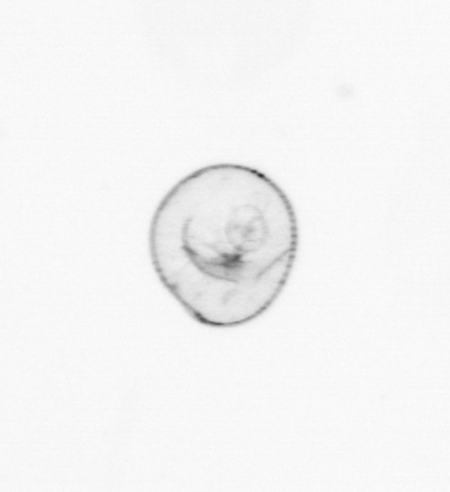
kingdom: Chromista
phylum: Myzozoa
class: Dinophyceae
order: Noctilucales
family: Noctilucaceae
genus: Noctiluca
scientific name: Noctiluca scintillans
